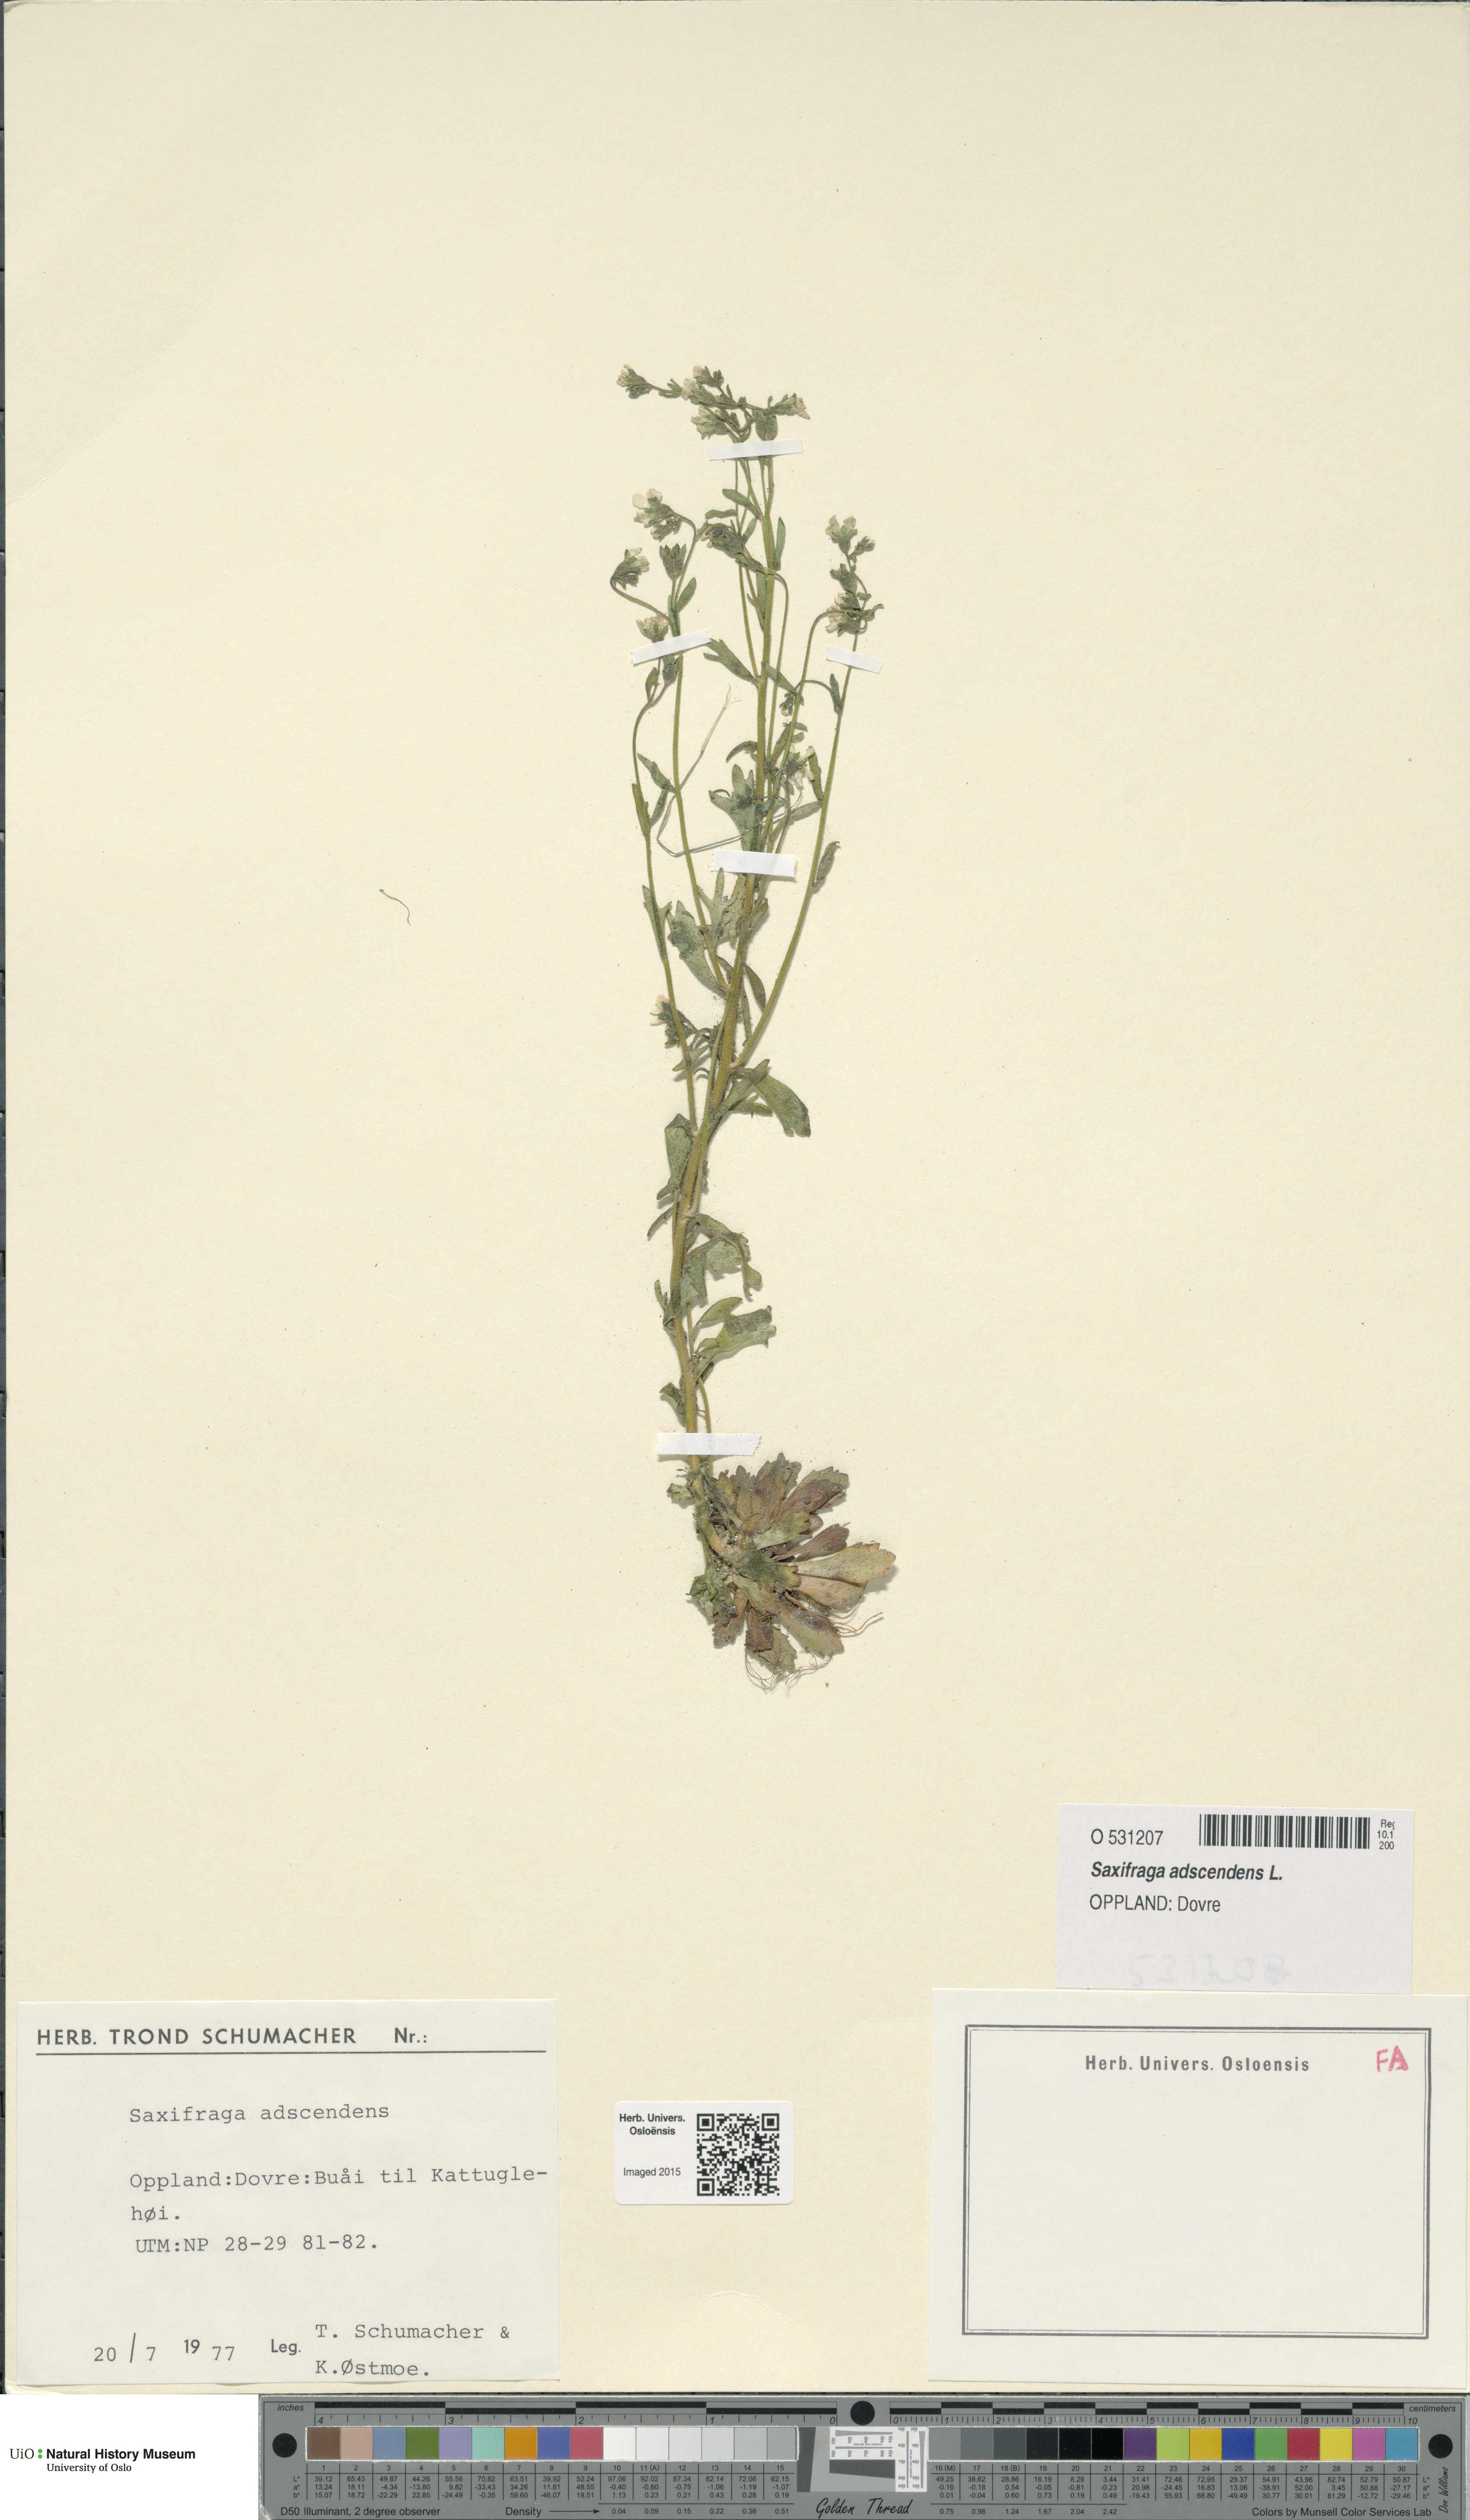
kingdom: Plantae
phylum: Tracheophyta
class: Magnoliopsida
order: Saxifragales
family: Saxifragaceae
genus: Saxifraga
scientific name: Saxifraga adscendens
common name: Ascending saxifrage
